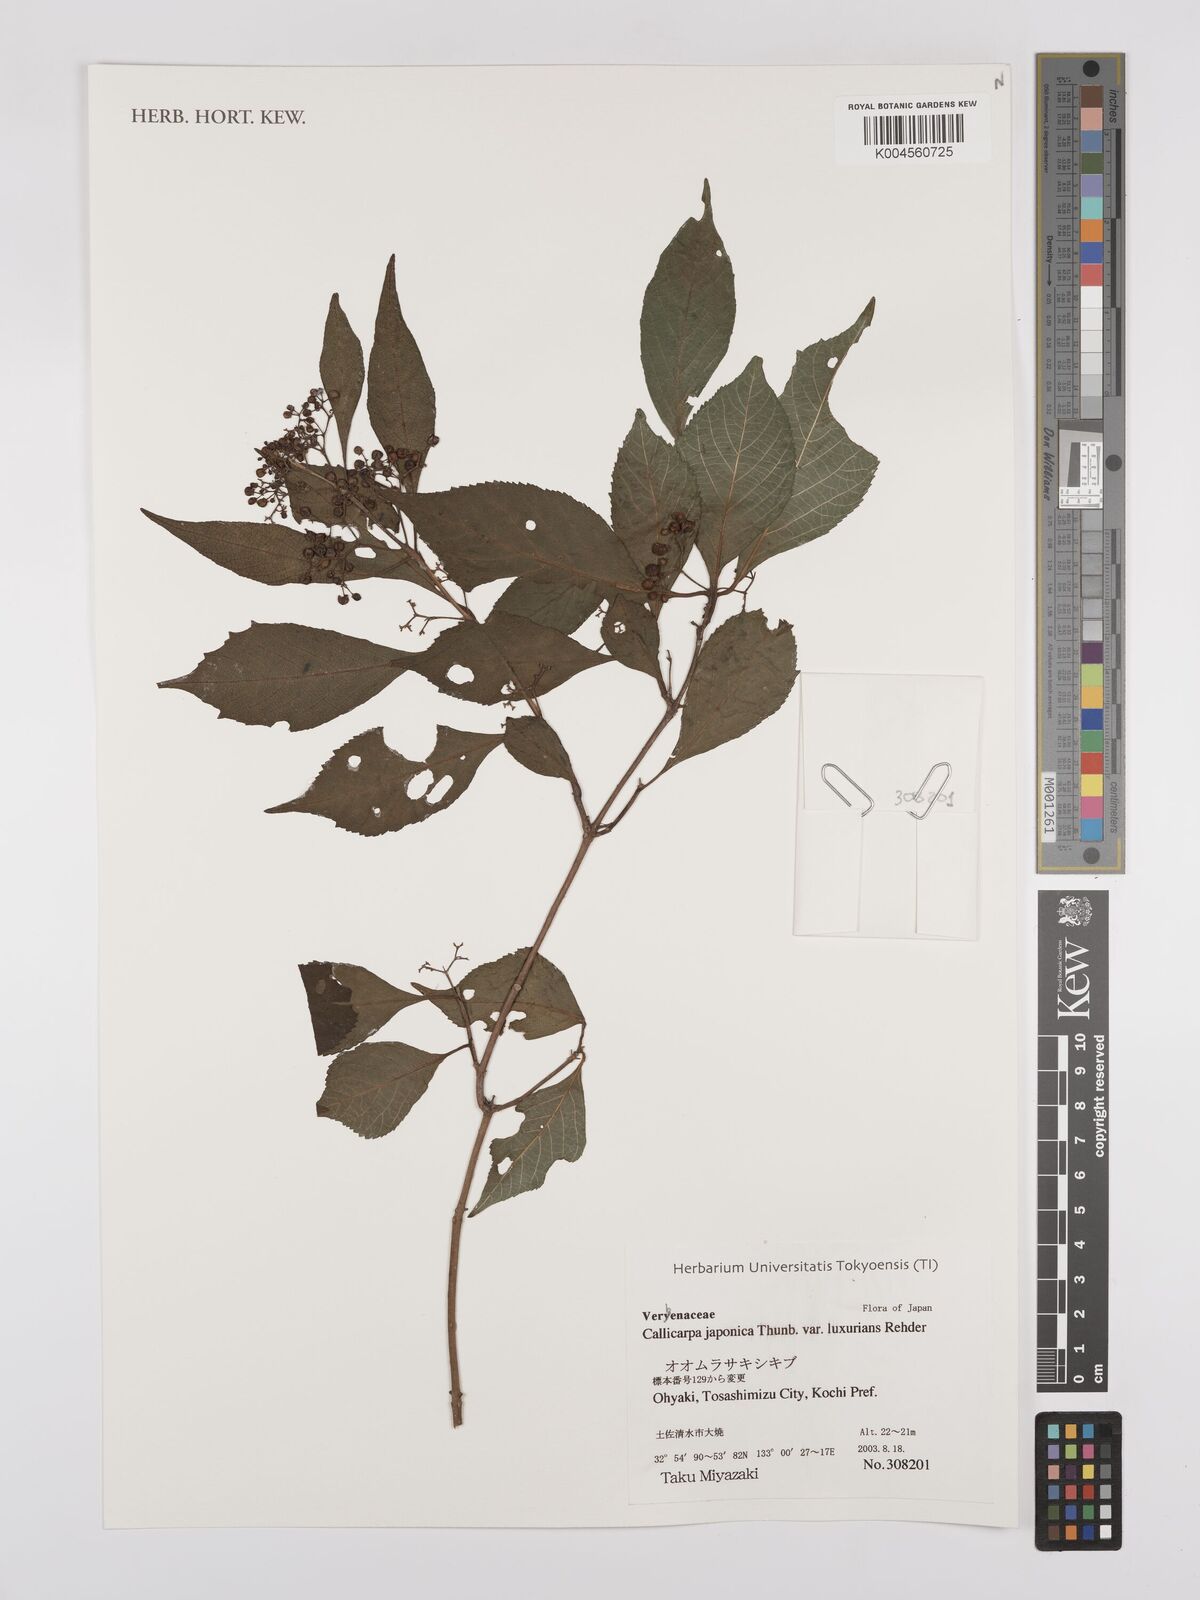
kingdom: Plantae
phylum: Tracheophyta
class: Magnoliopsida
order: Lamiales
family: Lamiaceae
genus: Callicarpa
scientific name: Callicarpa japonica
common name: Japanese beauty-berry
